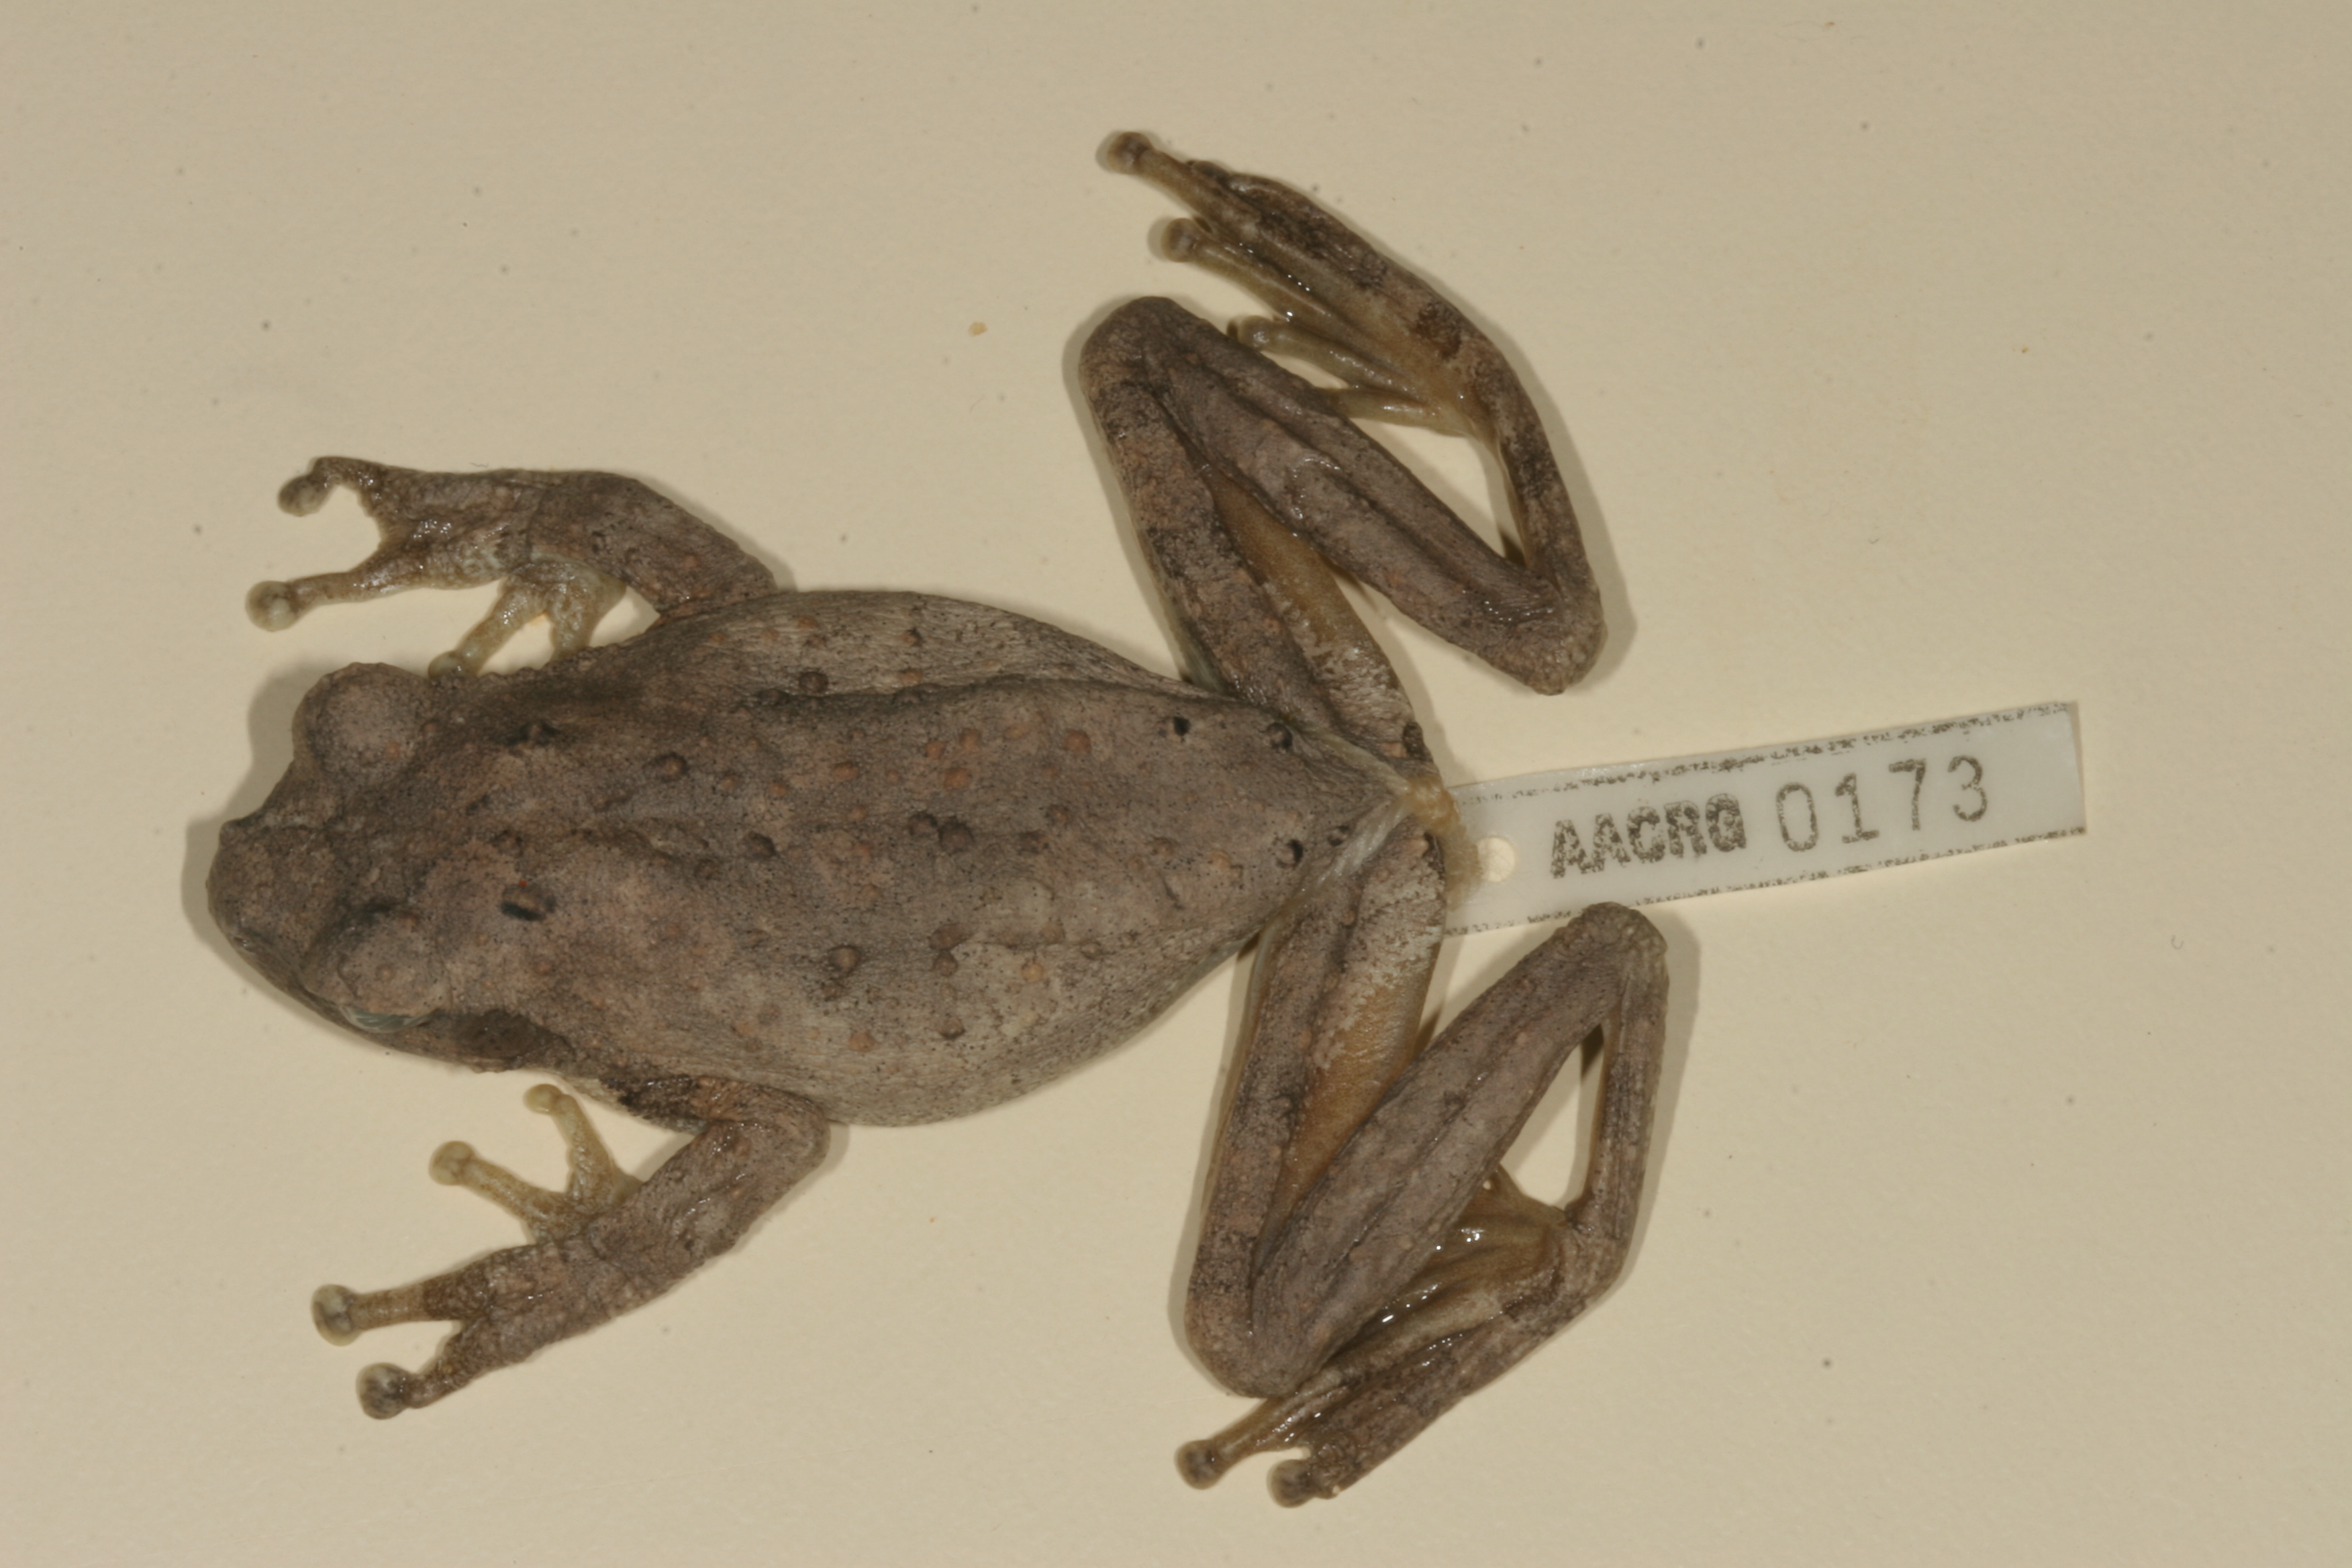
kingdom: Animalia
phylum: Chordata
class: Amphibia
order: Anura
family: Hyperoliidae
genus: Hyperolius
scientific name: Hyperolius marmoratus
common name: Painted reed frog
